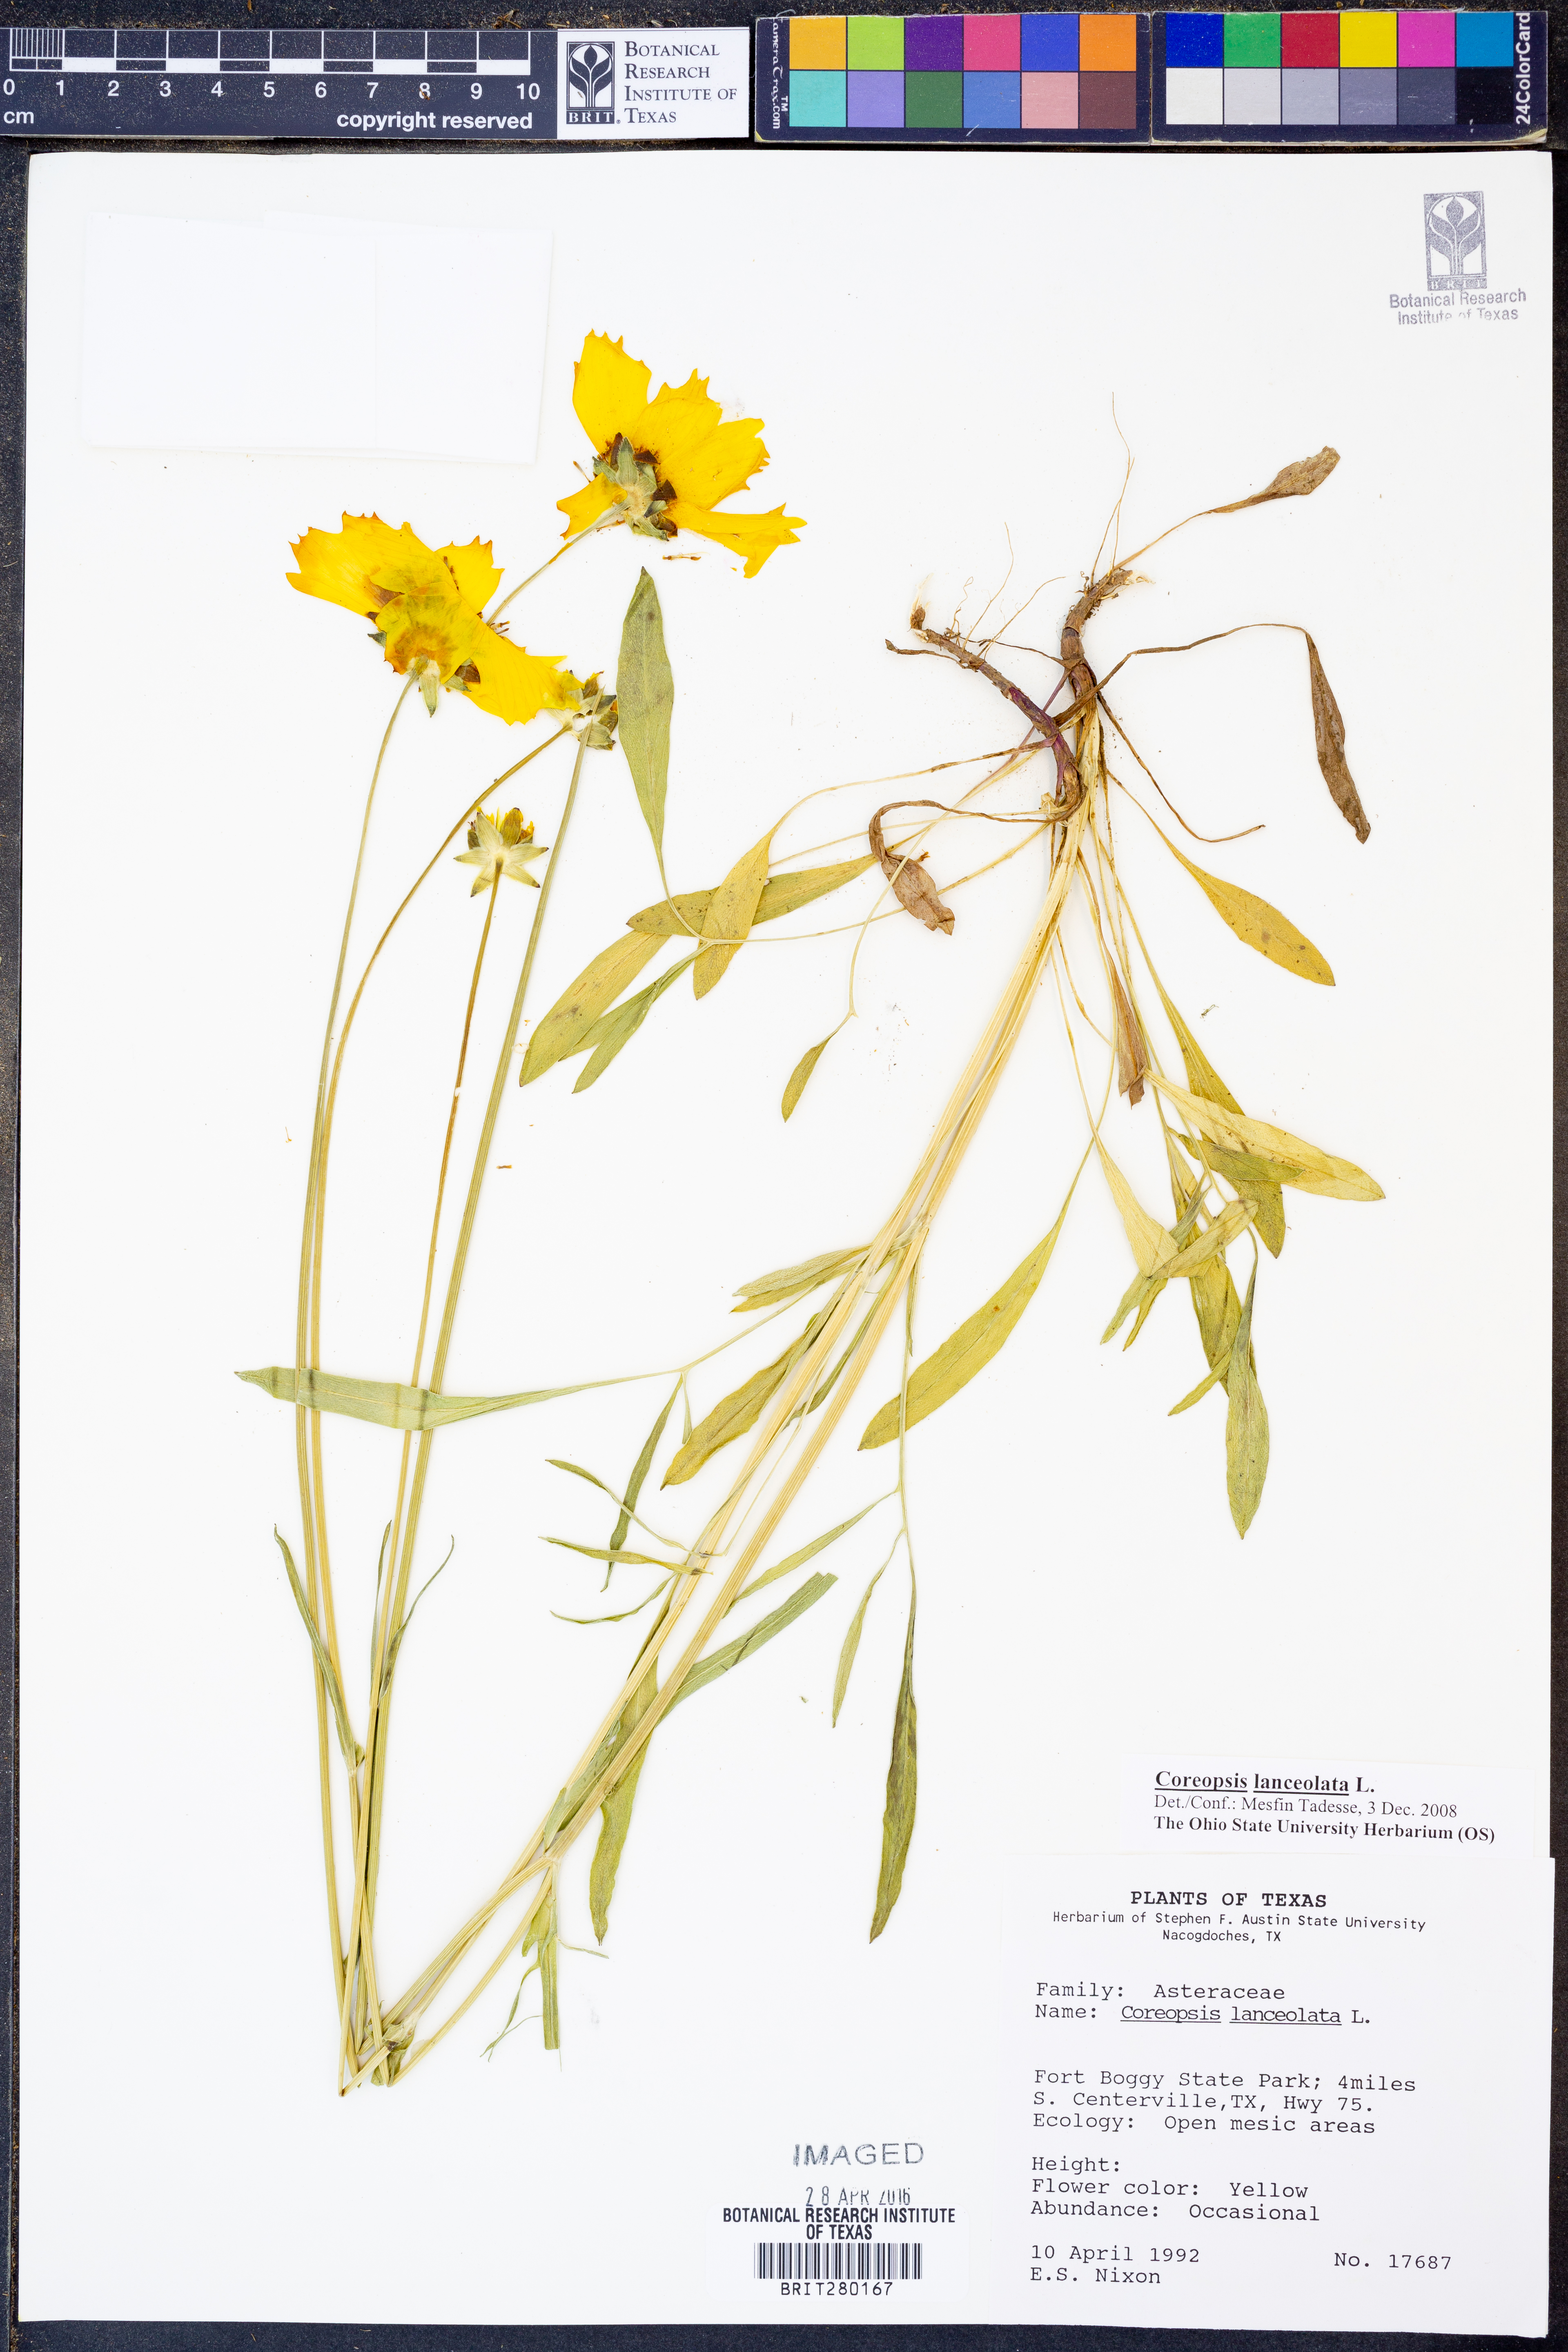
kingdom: Plantae
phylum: Tracheophyta
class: Magnoliopsida
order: Asterales
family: Asteraceae
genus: Coreopsis
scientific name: Coreopsis lanceolata
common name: Garden coreopsis
